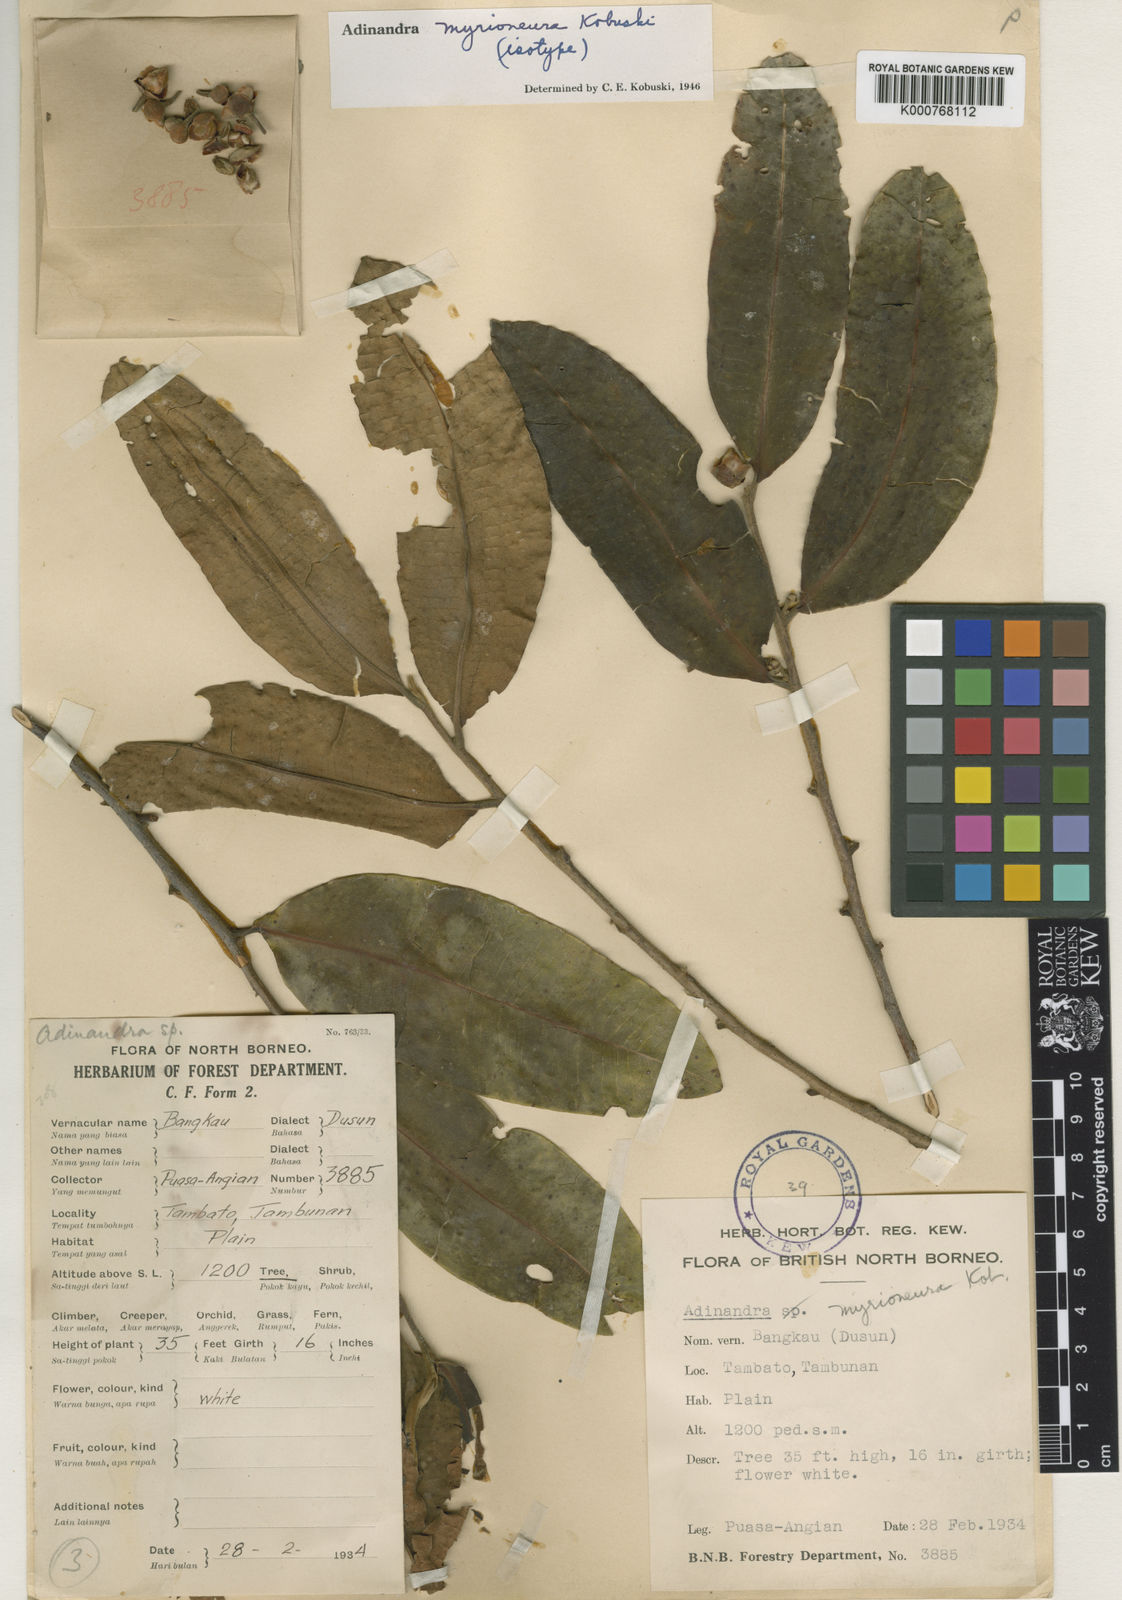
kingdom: Plantae
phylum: Tracheophyta
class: Magnoliopsida
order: Ericales
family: Pentaphylacaceae
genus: Adinandra
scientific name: Adinandra myrioneura
